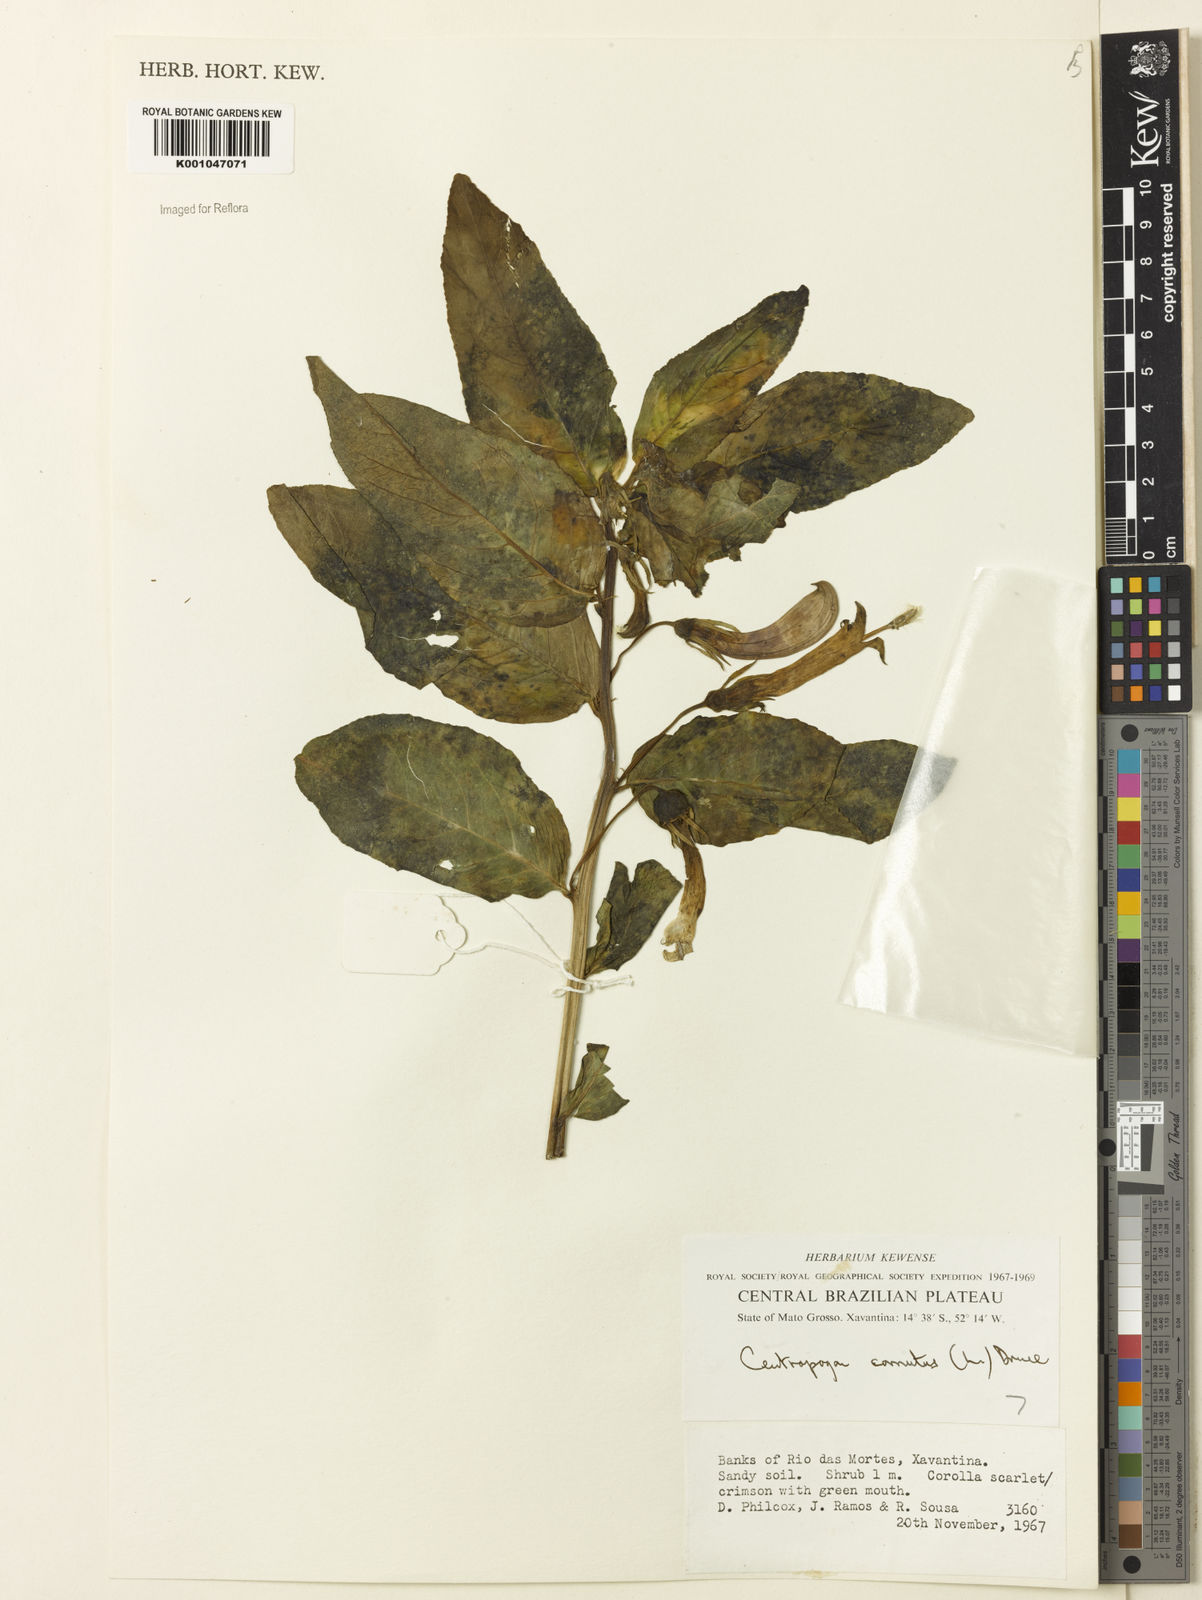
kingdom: Plantae
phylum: Tracheophyta
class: Magnoliopsida
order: Asterales
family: Campanulaceae
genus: Centropogon
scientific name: Centropogon cornutus
